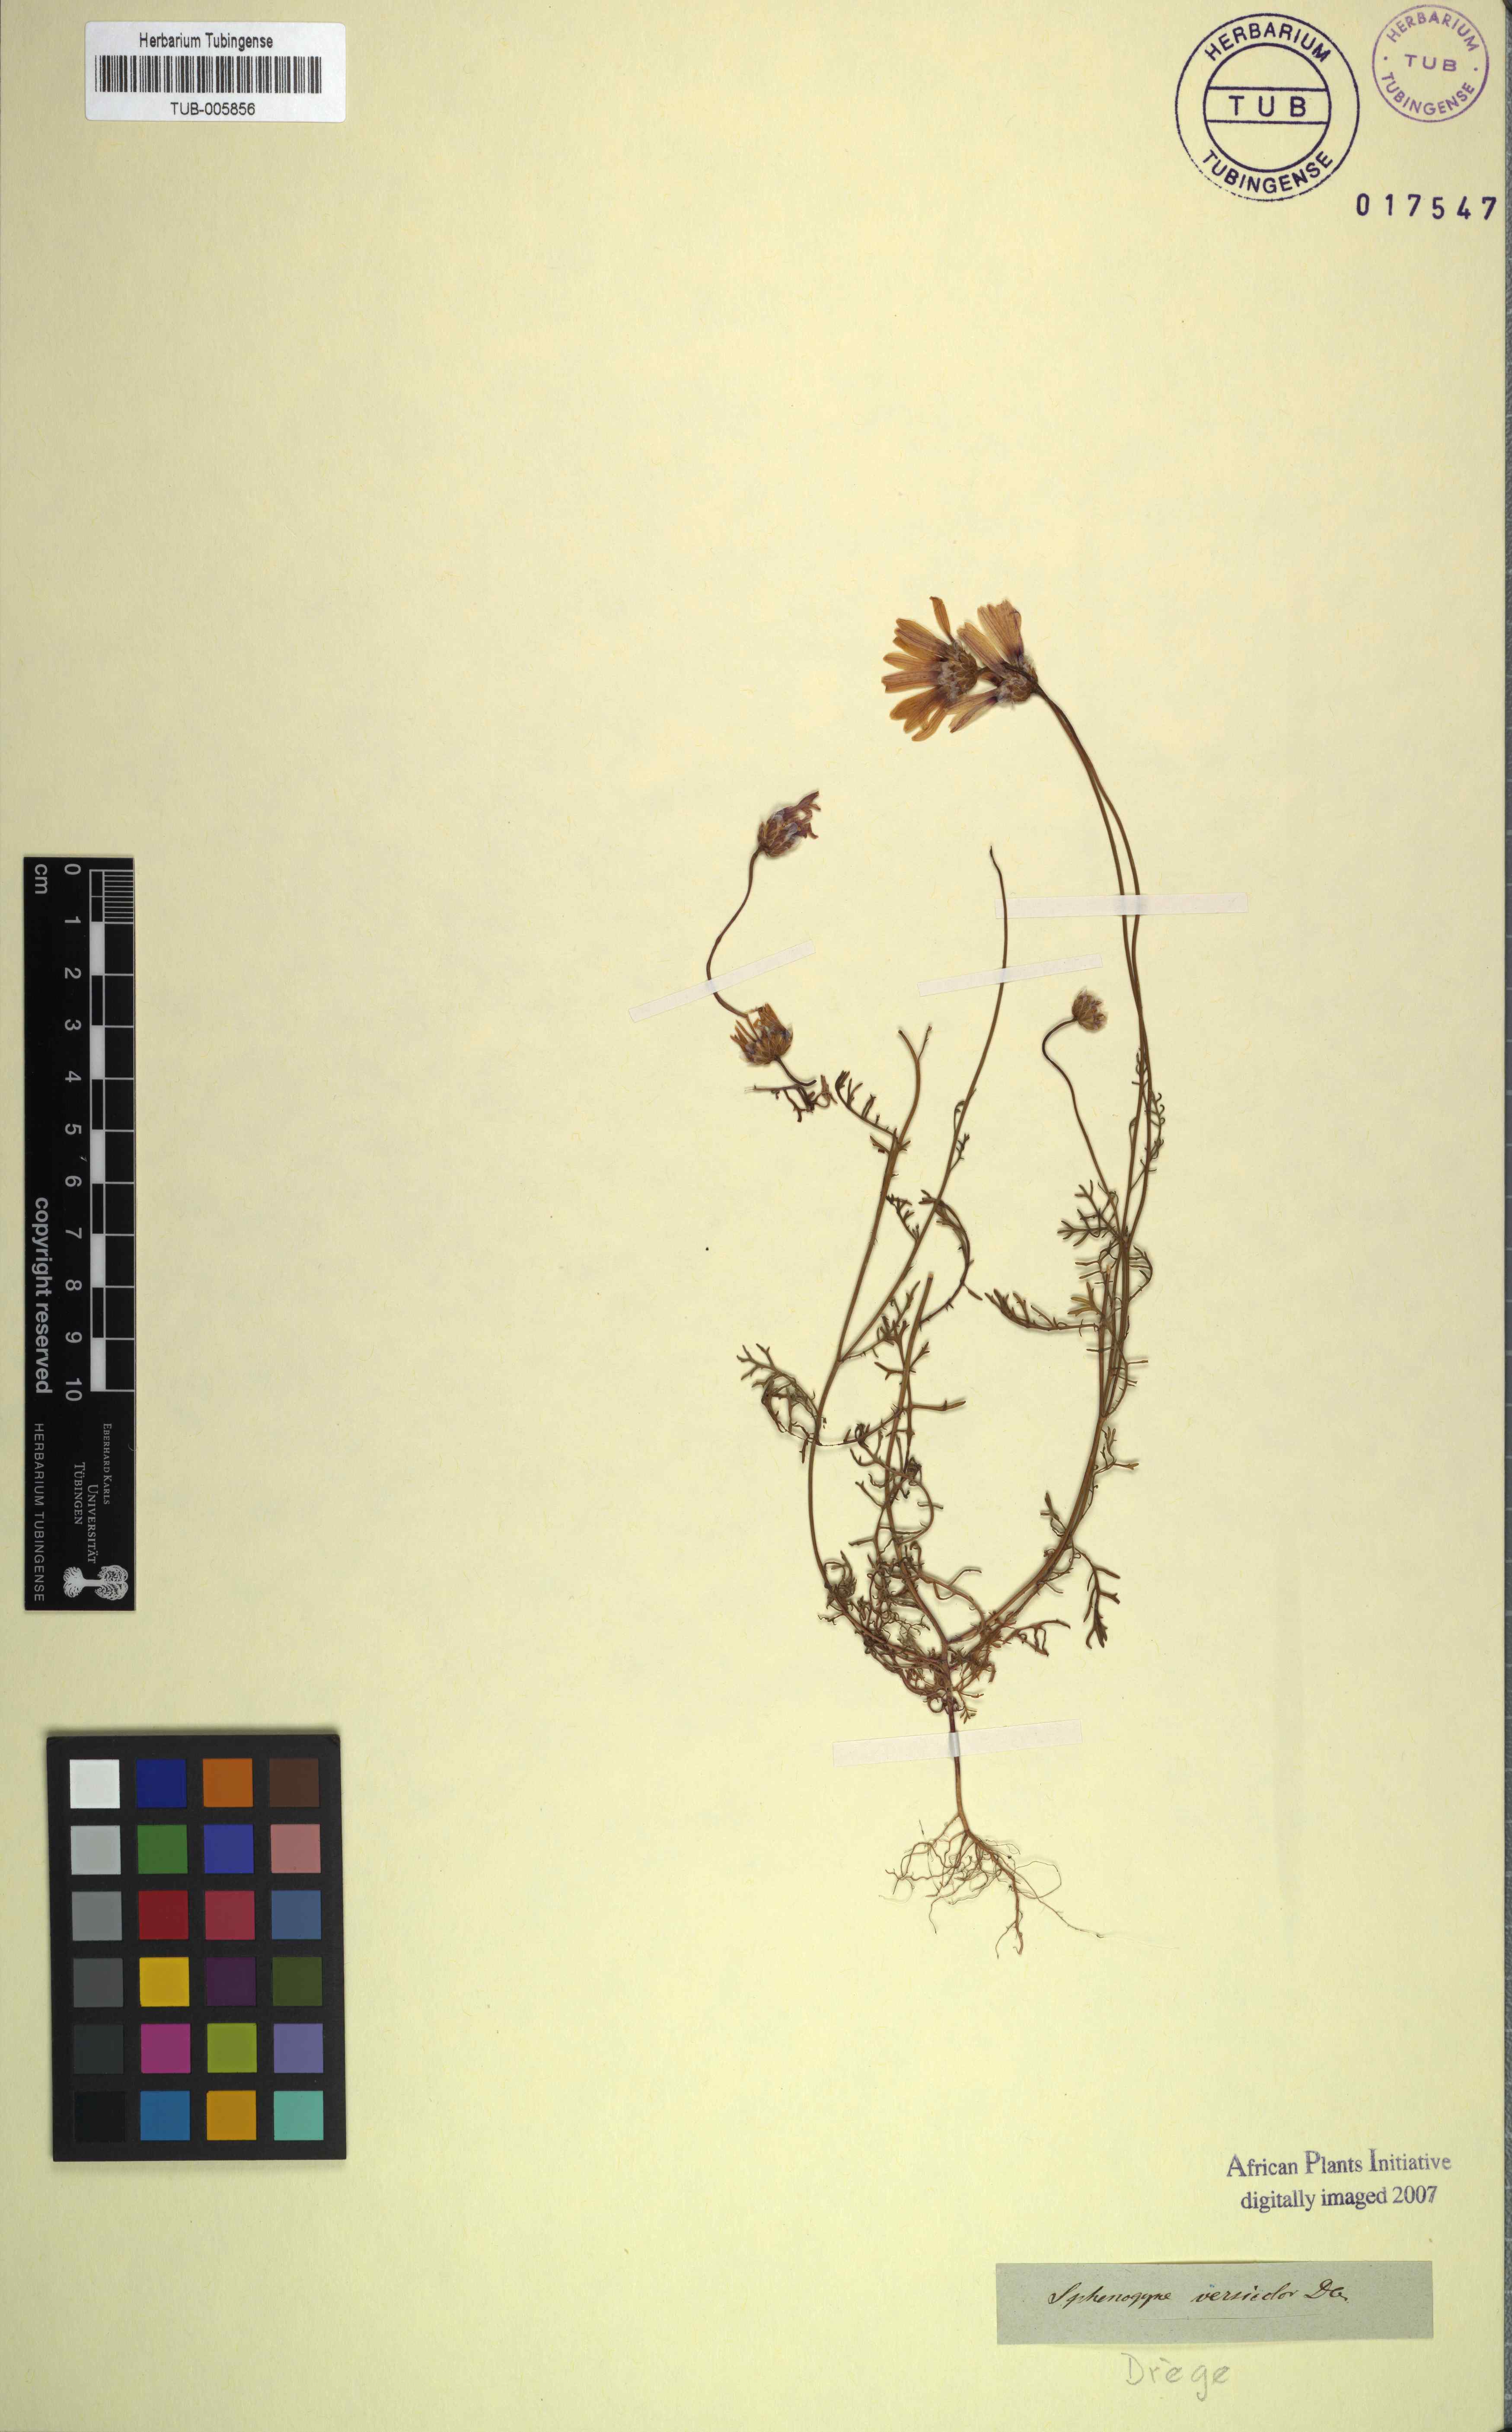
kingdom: Plantae
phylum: Tracheophyta
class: Magnoliopsida
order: Asterales
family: Asteraceae
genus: Ursinia
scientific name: Ursinia anthemoides
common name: Ursinia
